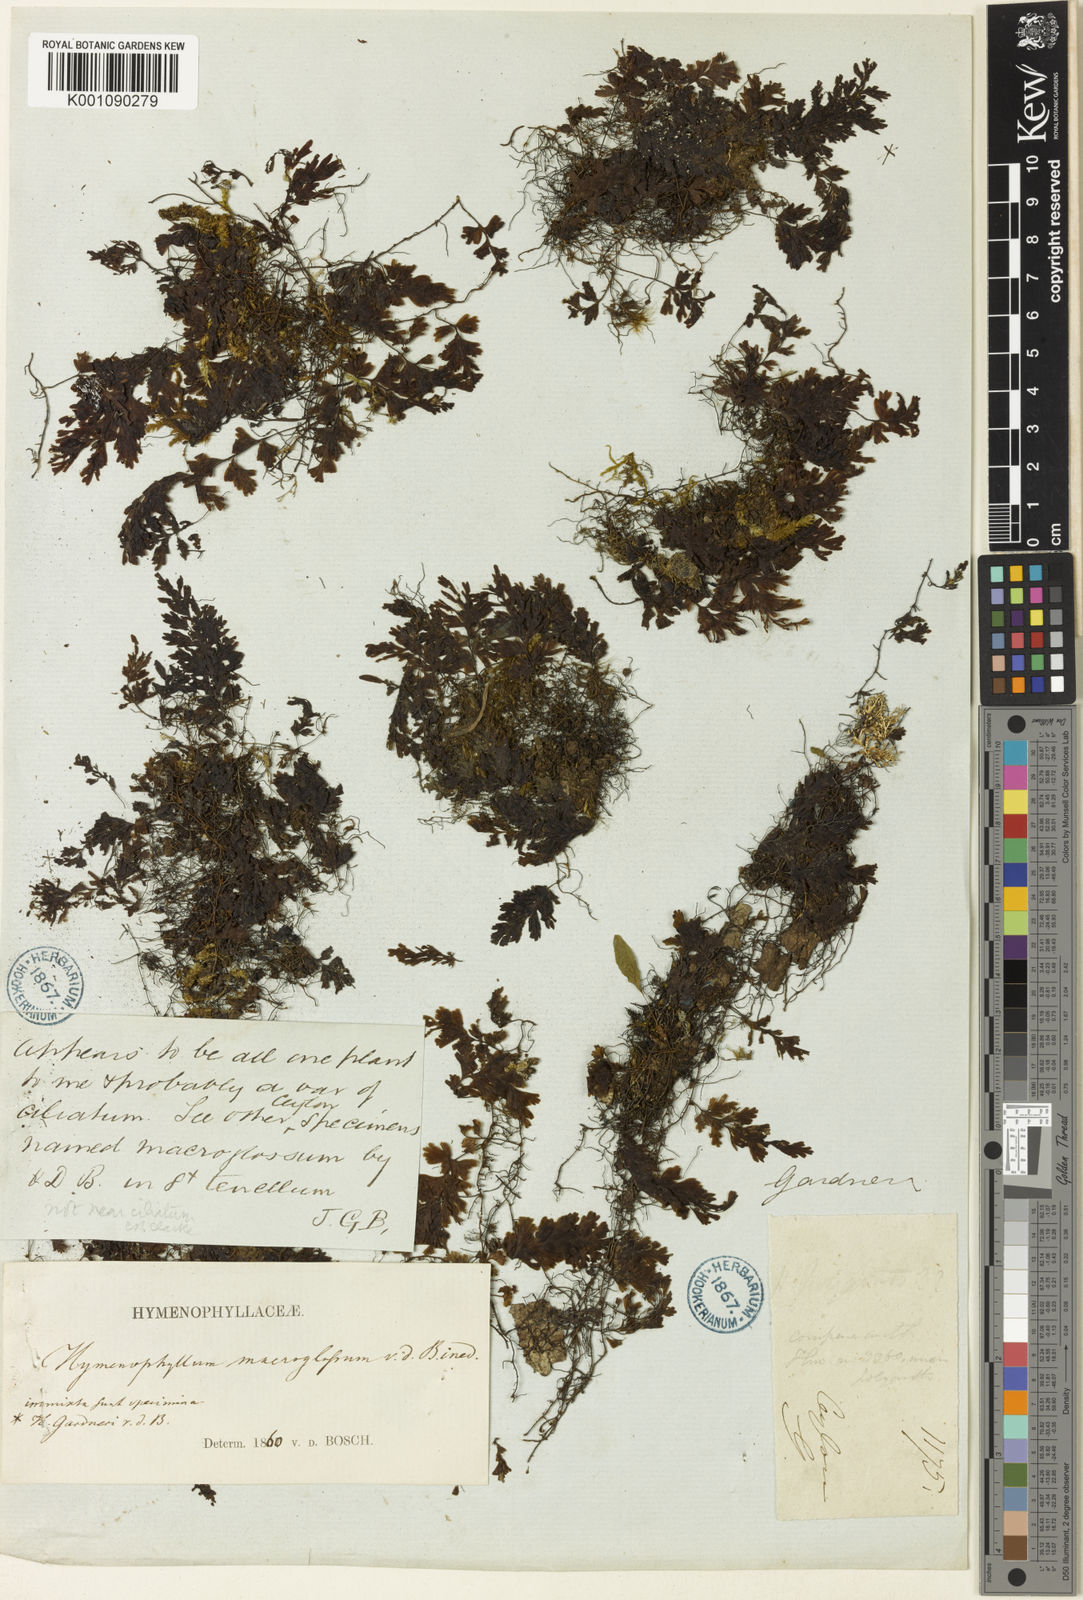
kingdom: Plantae
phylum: Tracheophyta
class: Polypodiopsida
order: Hymenophyllales
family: Hymenophyllaceae
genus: Hymenophyllum
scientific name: Hymenophyllum gardneri
